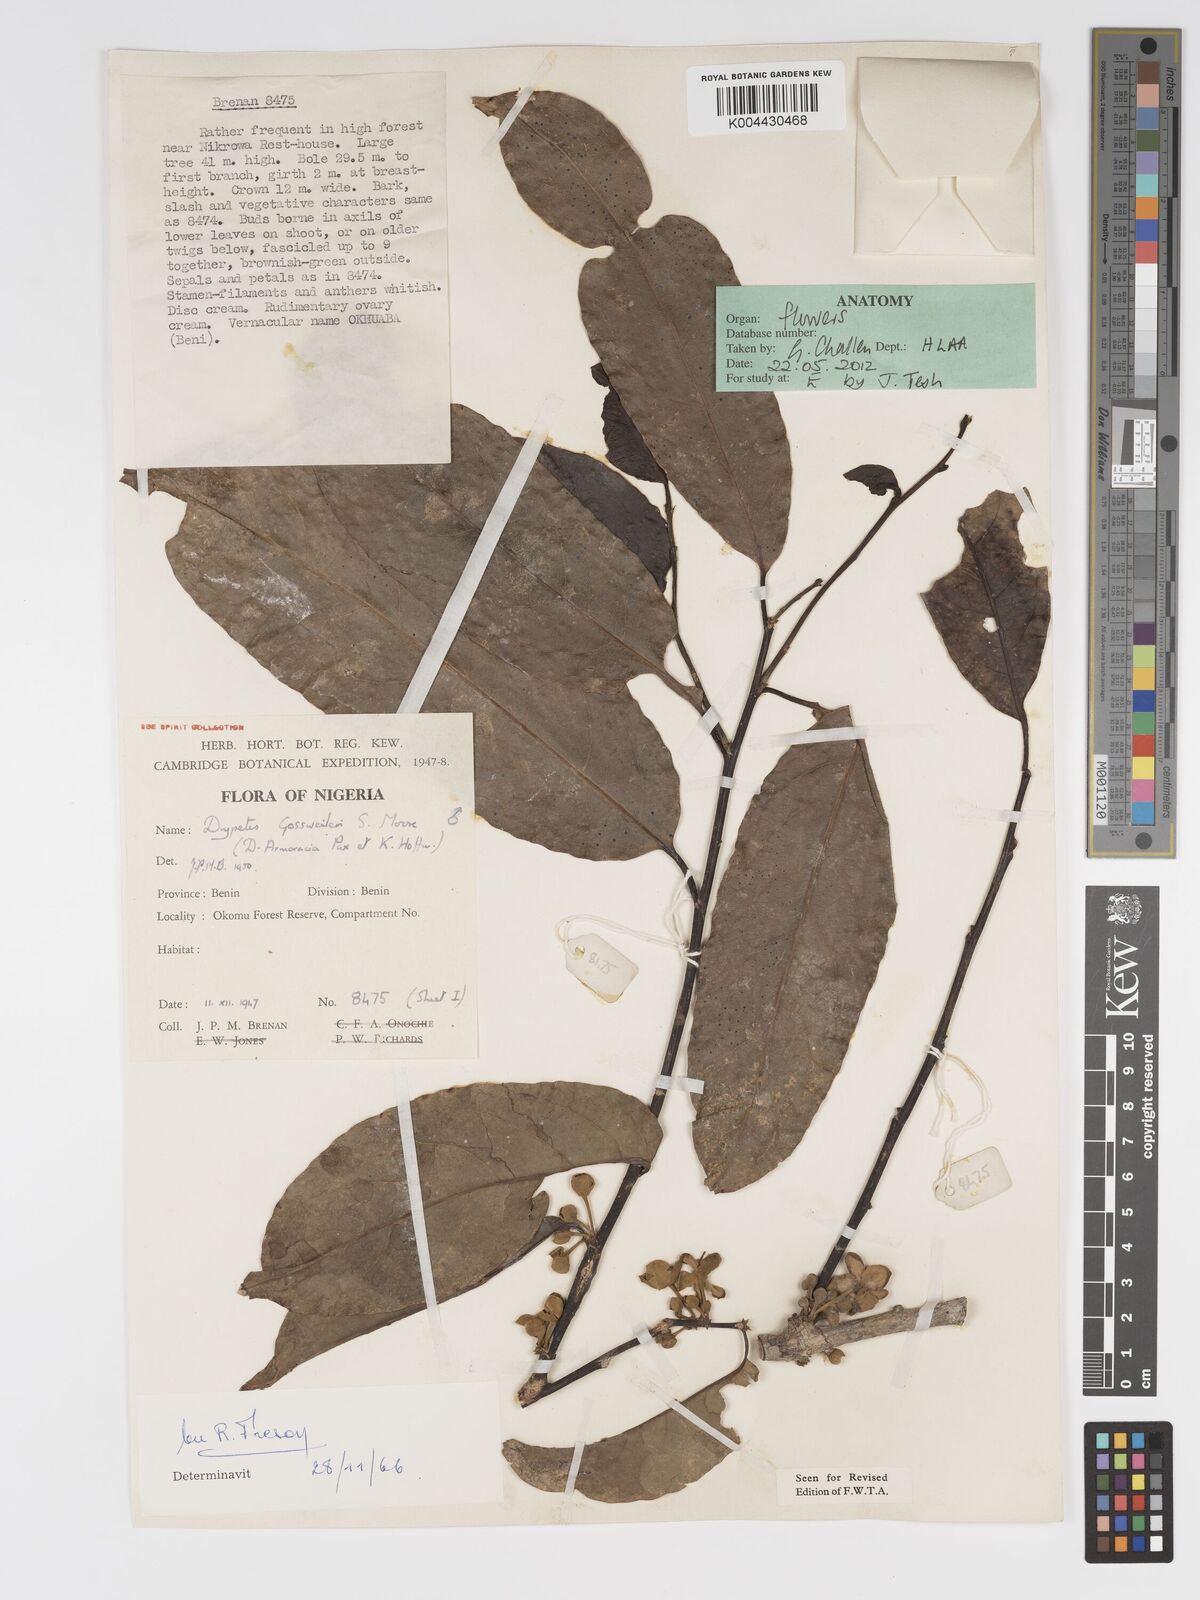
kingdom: Plantae
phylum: Tracheophyta
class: Magnoliopsida
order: Malpighiales
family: Putranjivaceae
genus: Drypetes
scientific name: Drypetes gossweileri
